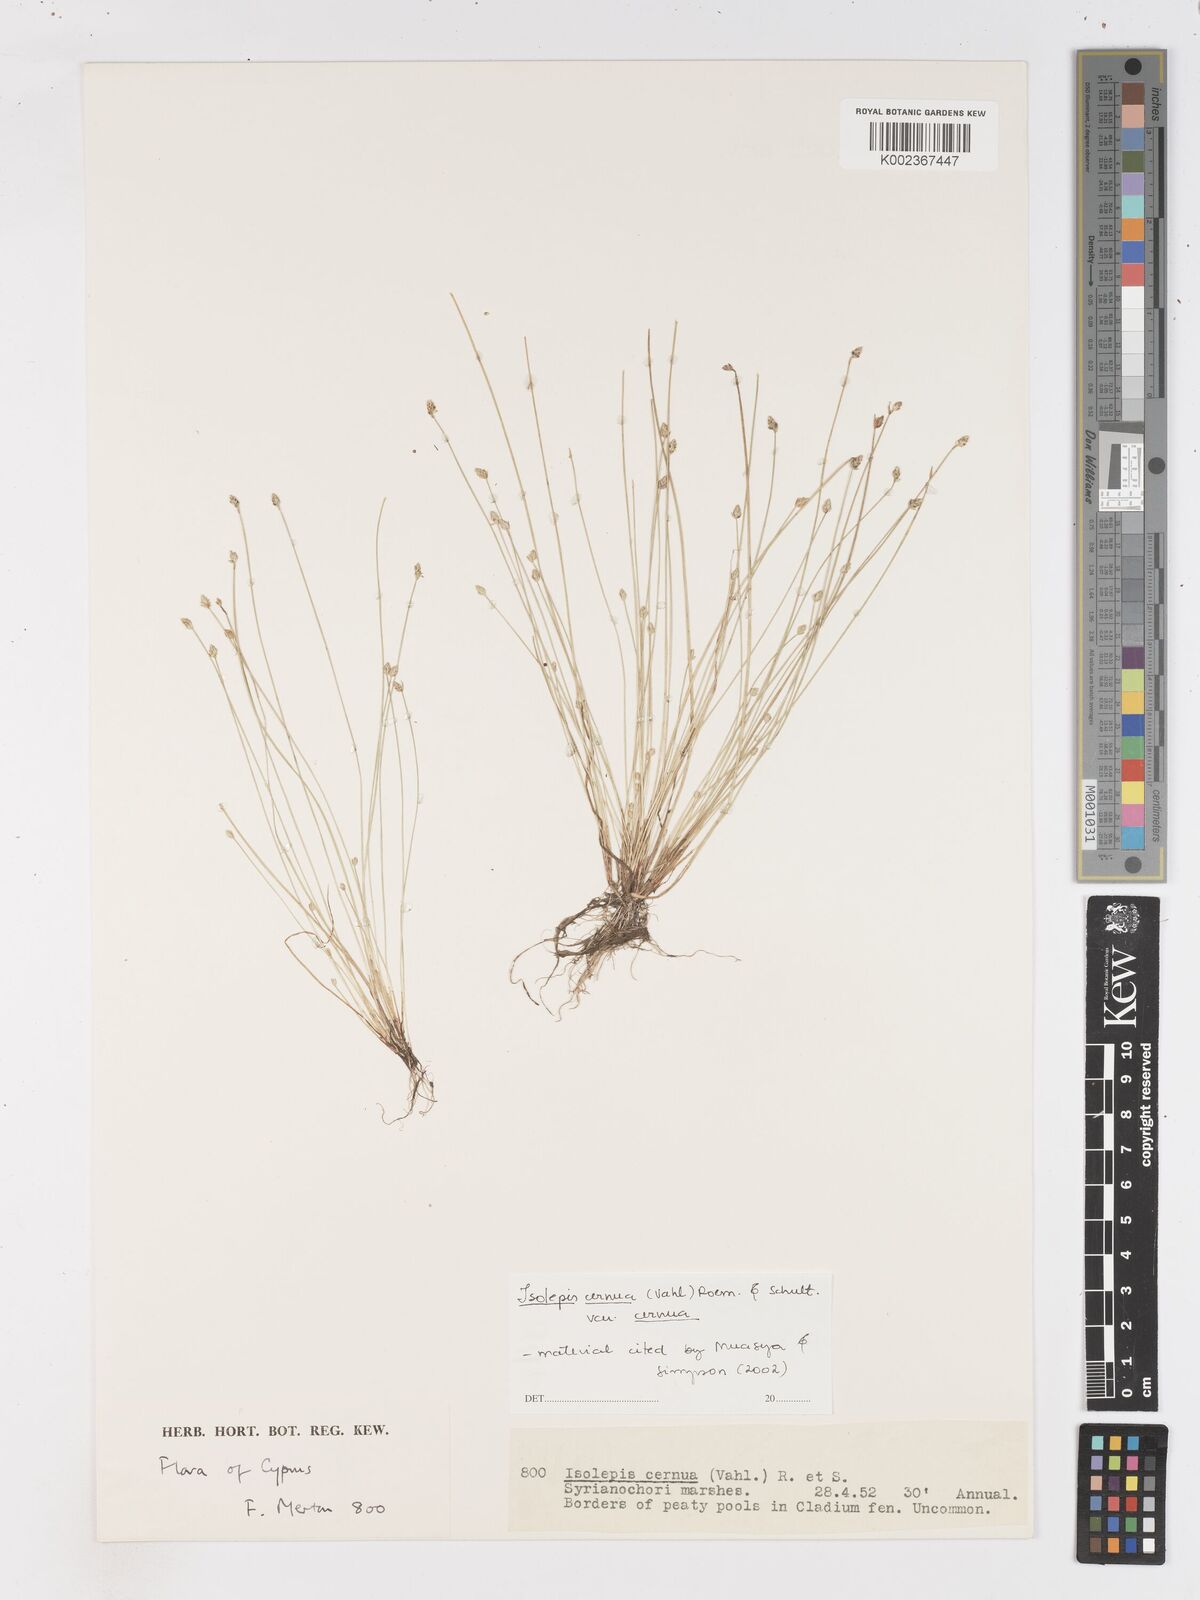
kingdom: Plantae
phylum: Tracheophyta
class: Liliopsida
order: Poales
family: Cyperaceae
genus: Isolepis
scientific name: Isolepis cernua
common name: Slender club-rush
